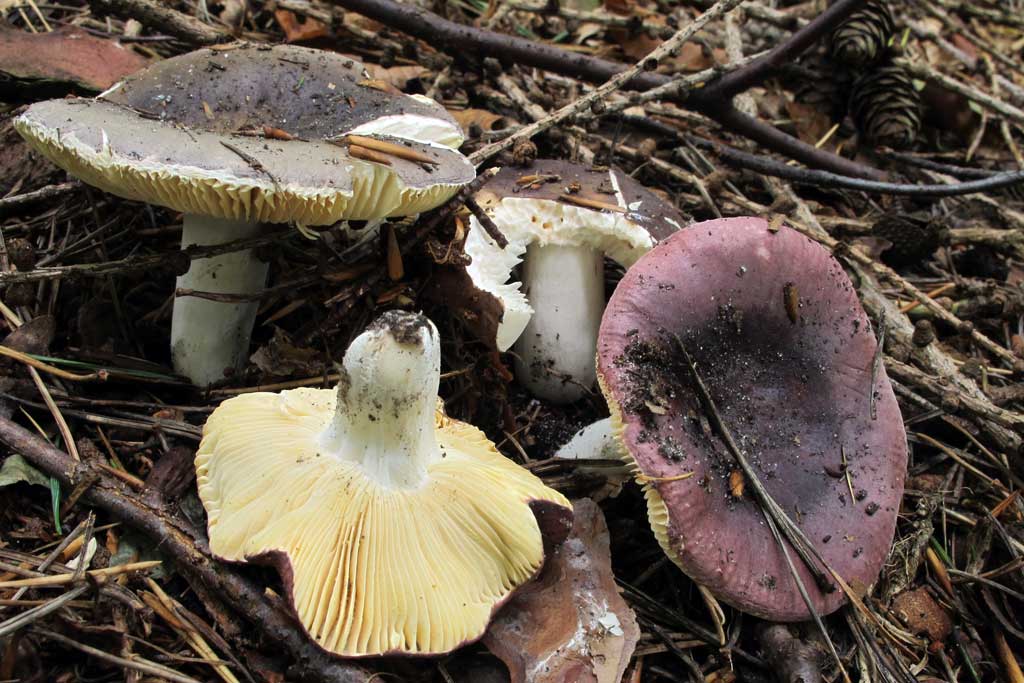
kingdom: Fungi
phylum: Basidiomycota
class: Agaricomycetes
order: Russulales
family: Russulaceae
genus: Russula
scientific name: Russula turci
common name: jod-skørhat
